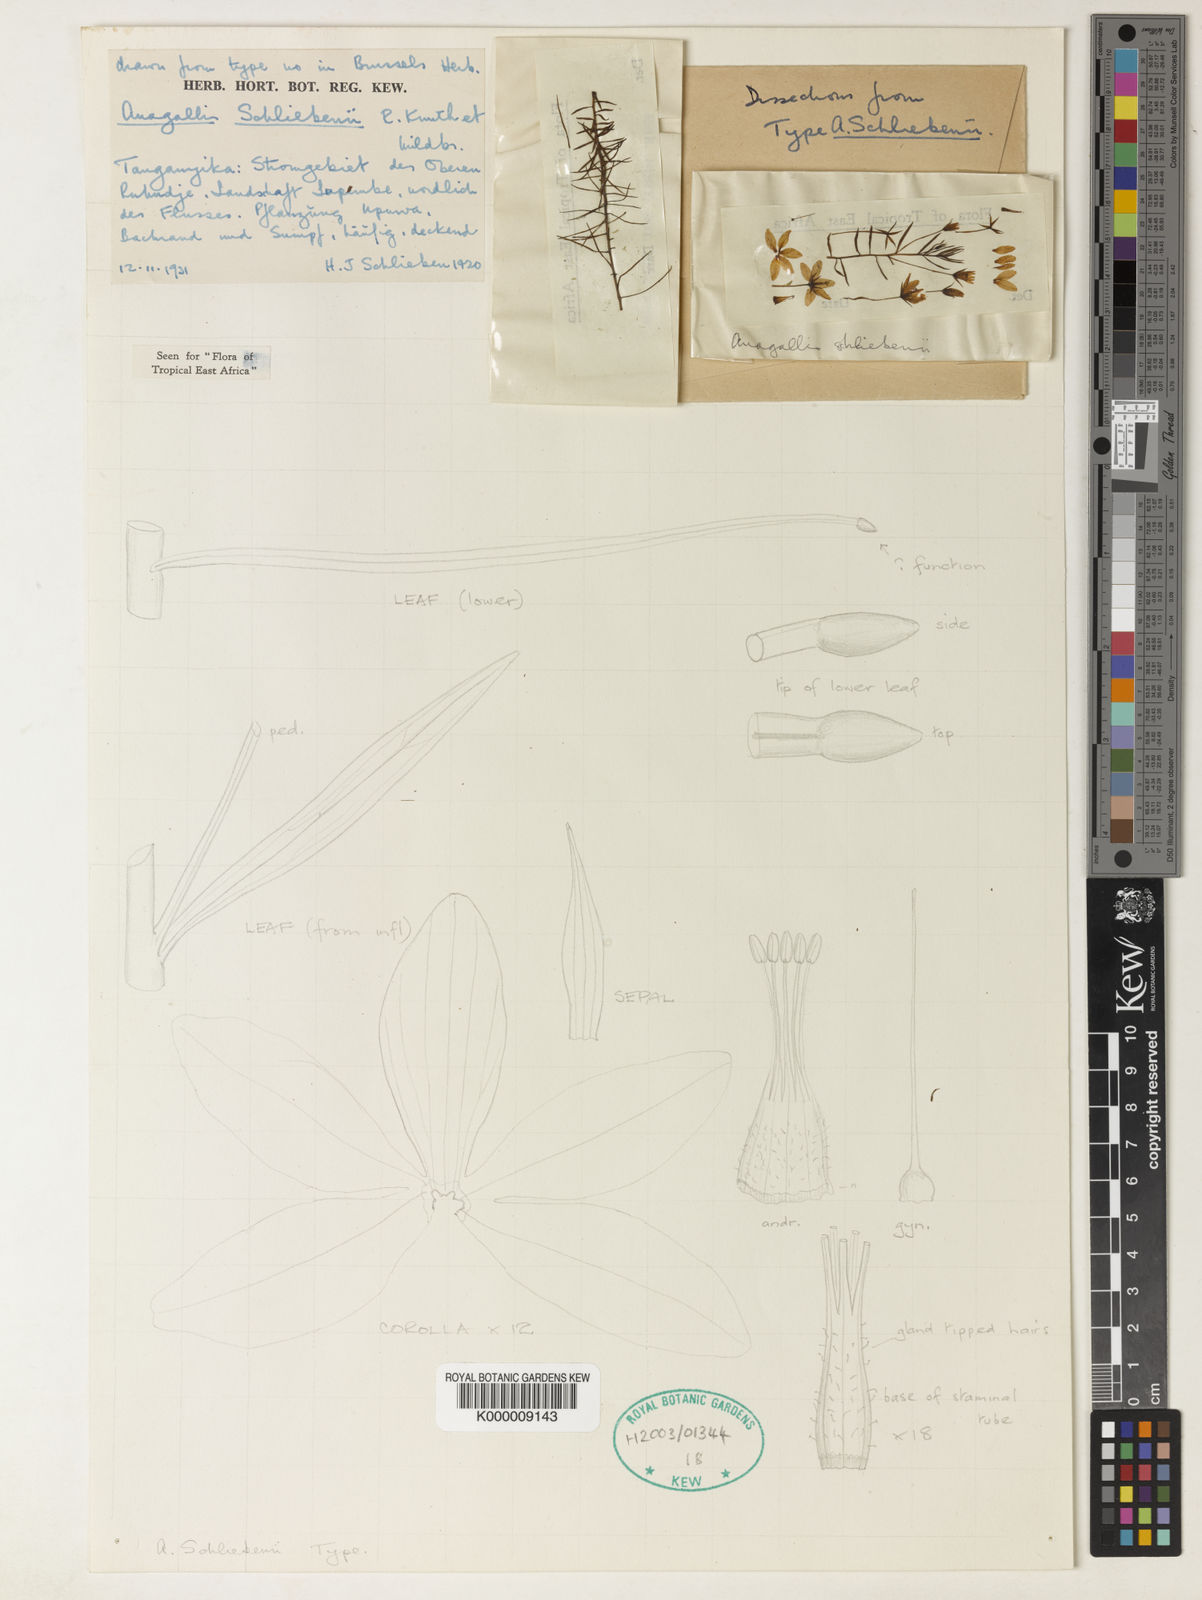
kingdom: Plantae
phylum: Tracheophyta
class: Magnoliopsida
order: Ericales
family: Primulaceae
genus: Lysimachia
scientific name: Lysimachia schliebenii
